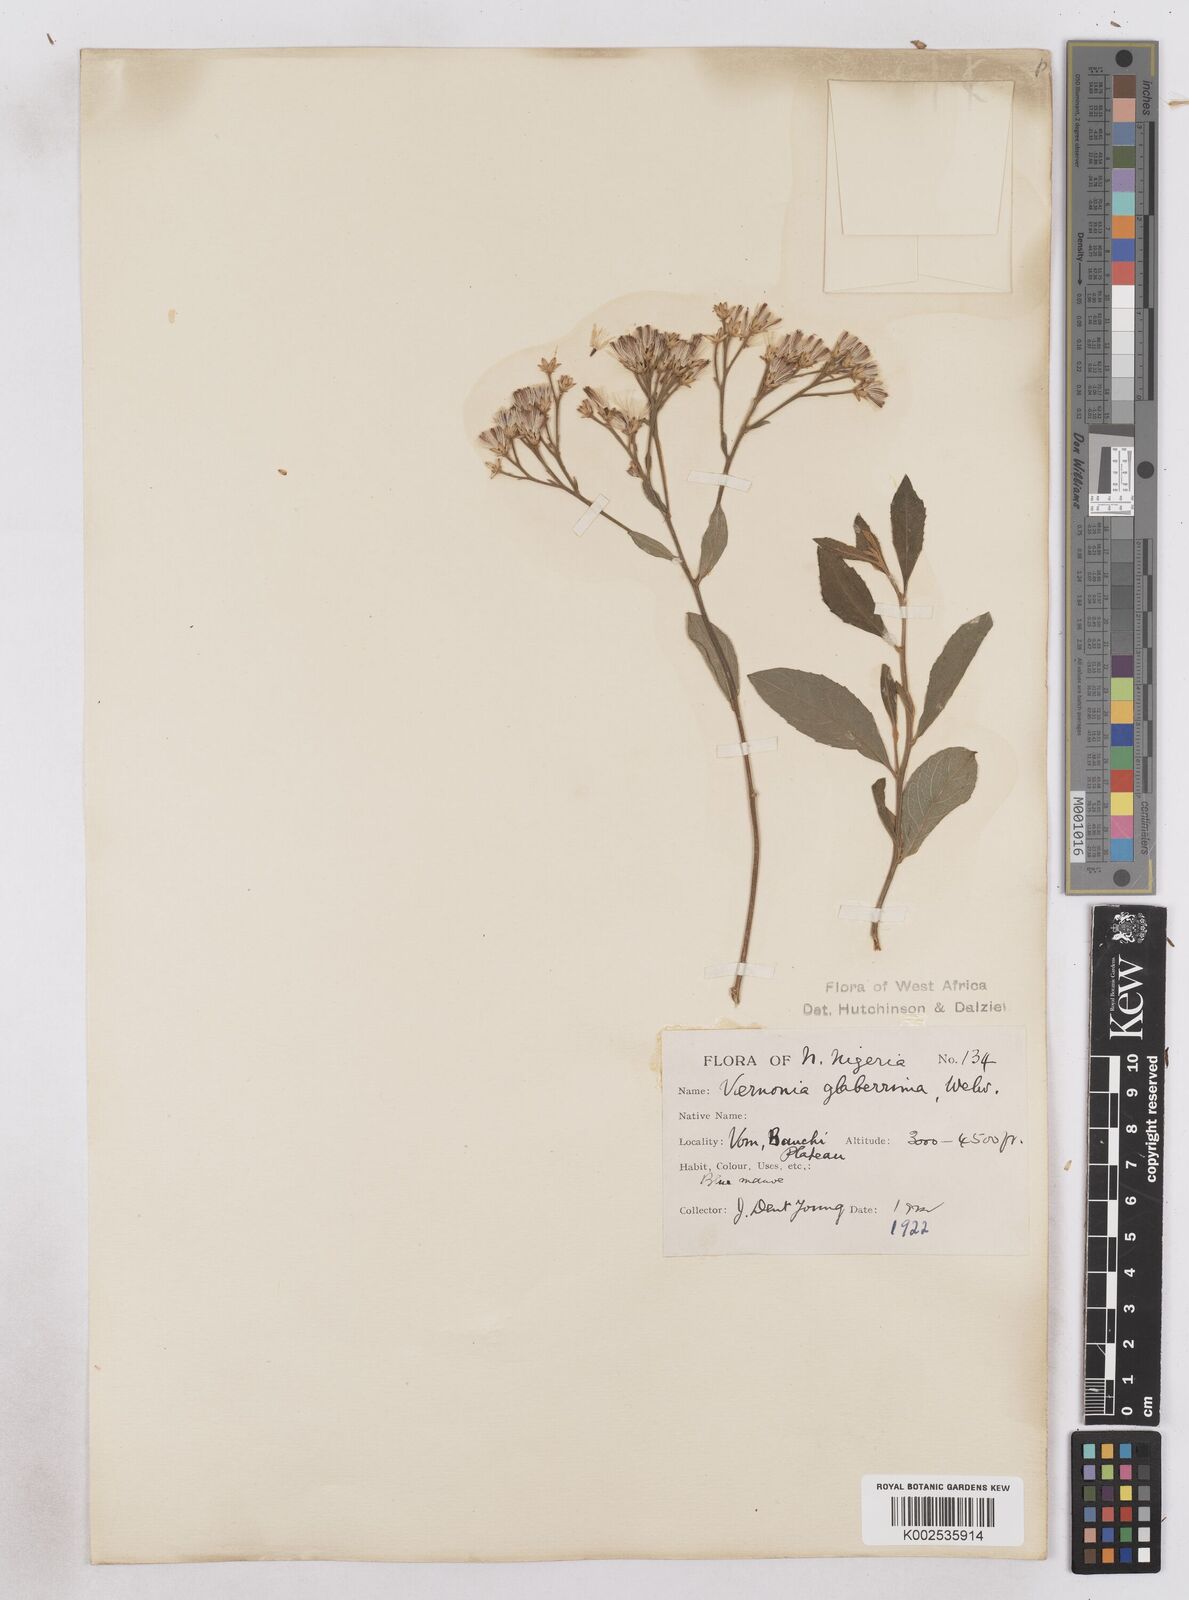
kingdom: Plantae
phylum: Tracheophyta
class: Magnoliopsida
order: Asterales
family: Asteraceae
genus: Gymnanthemum
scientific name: Gymnanthemum glaberrimum
